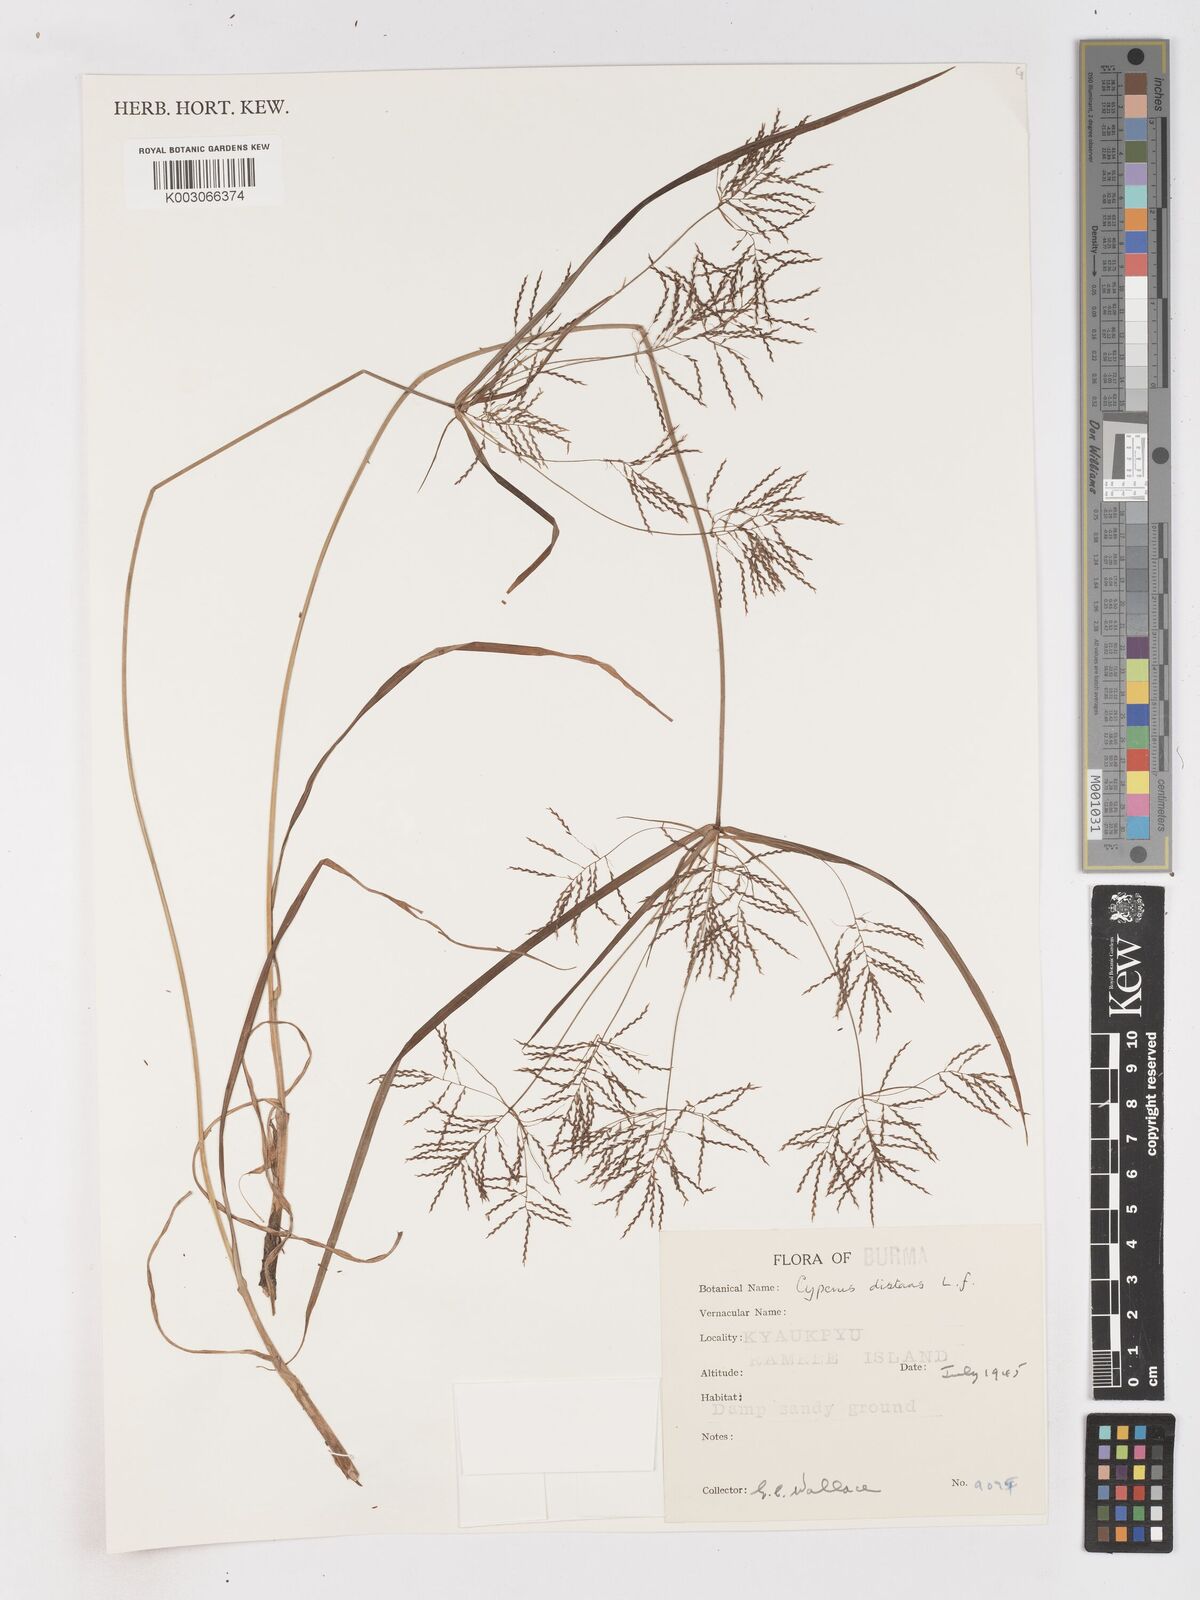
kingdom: Plantae
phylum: Tracheophyta
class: Liliopsida
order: Poales
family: Cyperaceae
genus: Cyperus
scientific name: Cyperus distans
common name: Slender cyperus
